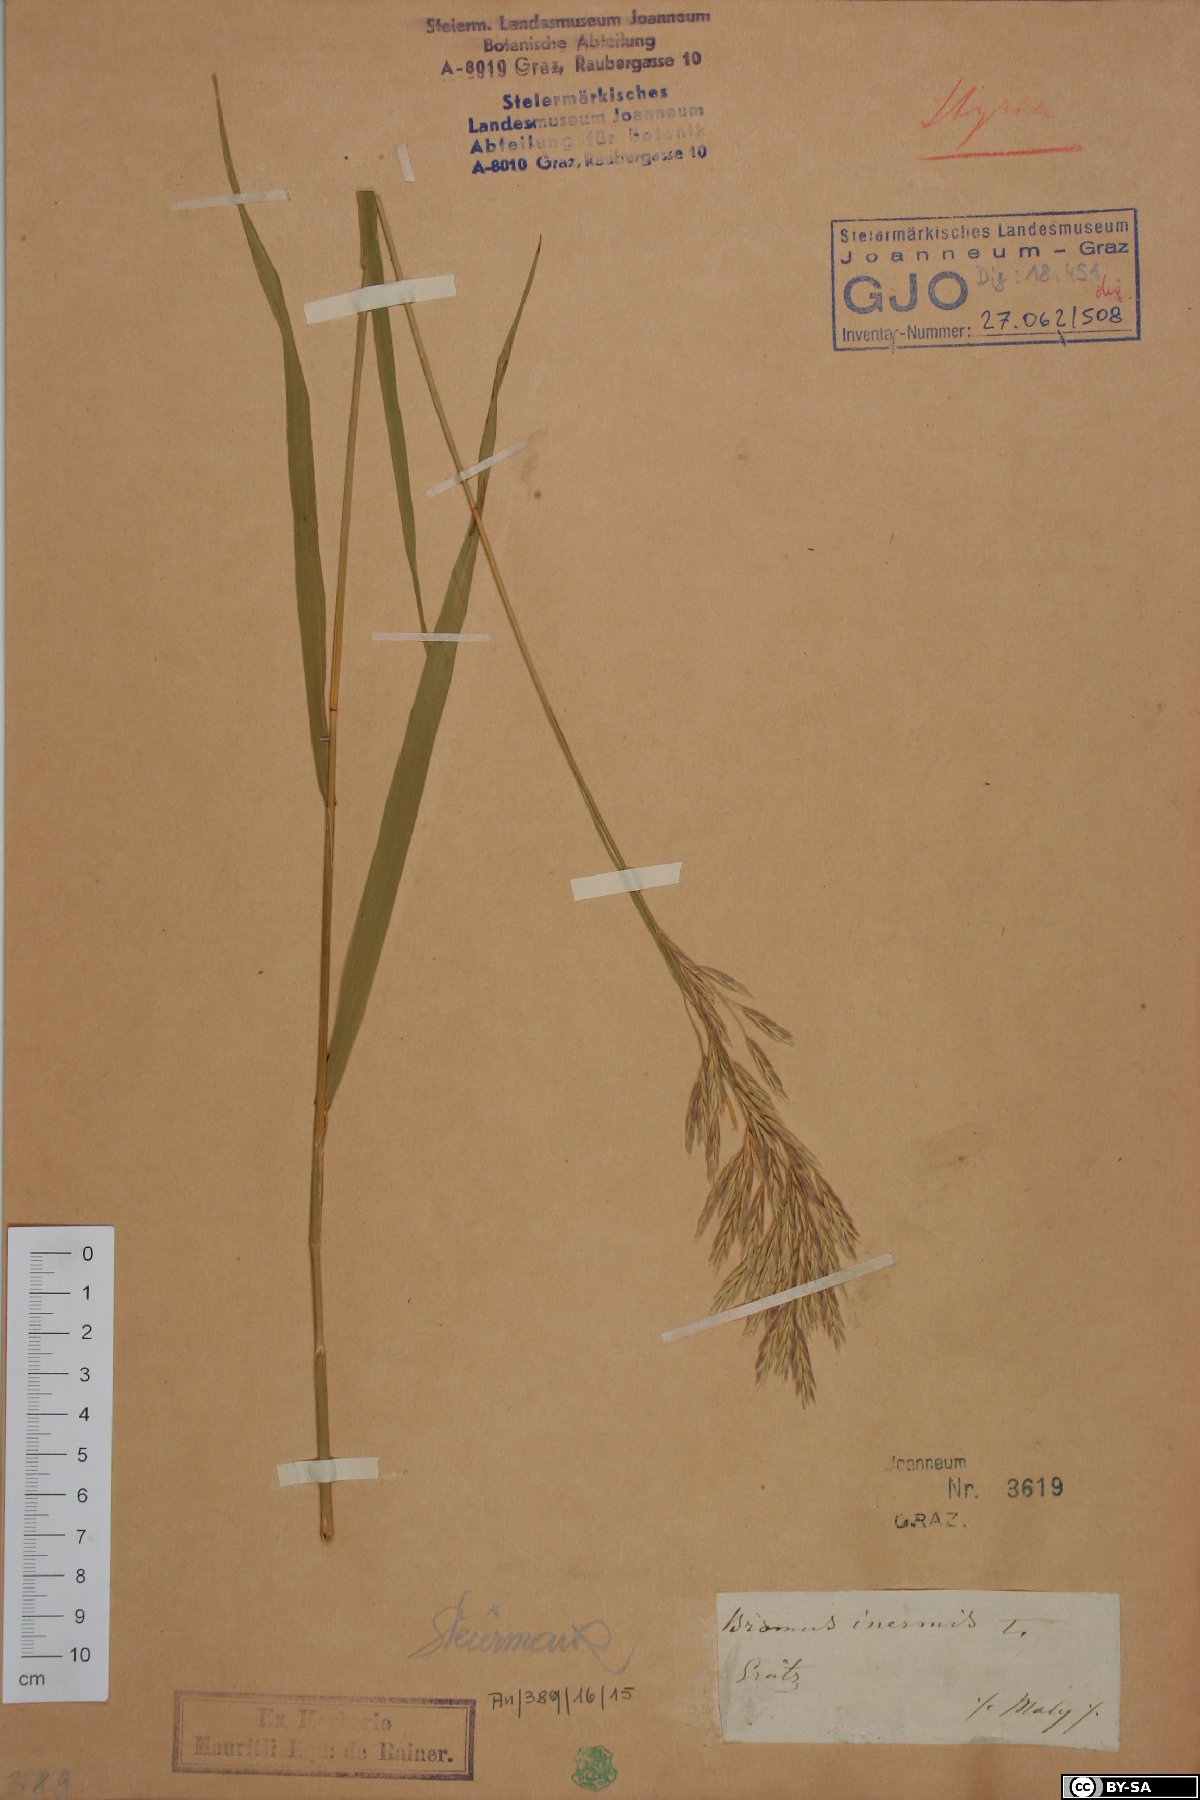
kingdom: Plantae
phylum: Tracheophyta
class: Liliopsida
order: Poales
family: Poaceae
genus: Bromus
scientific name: Bromus inermis
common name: Smooth brome
